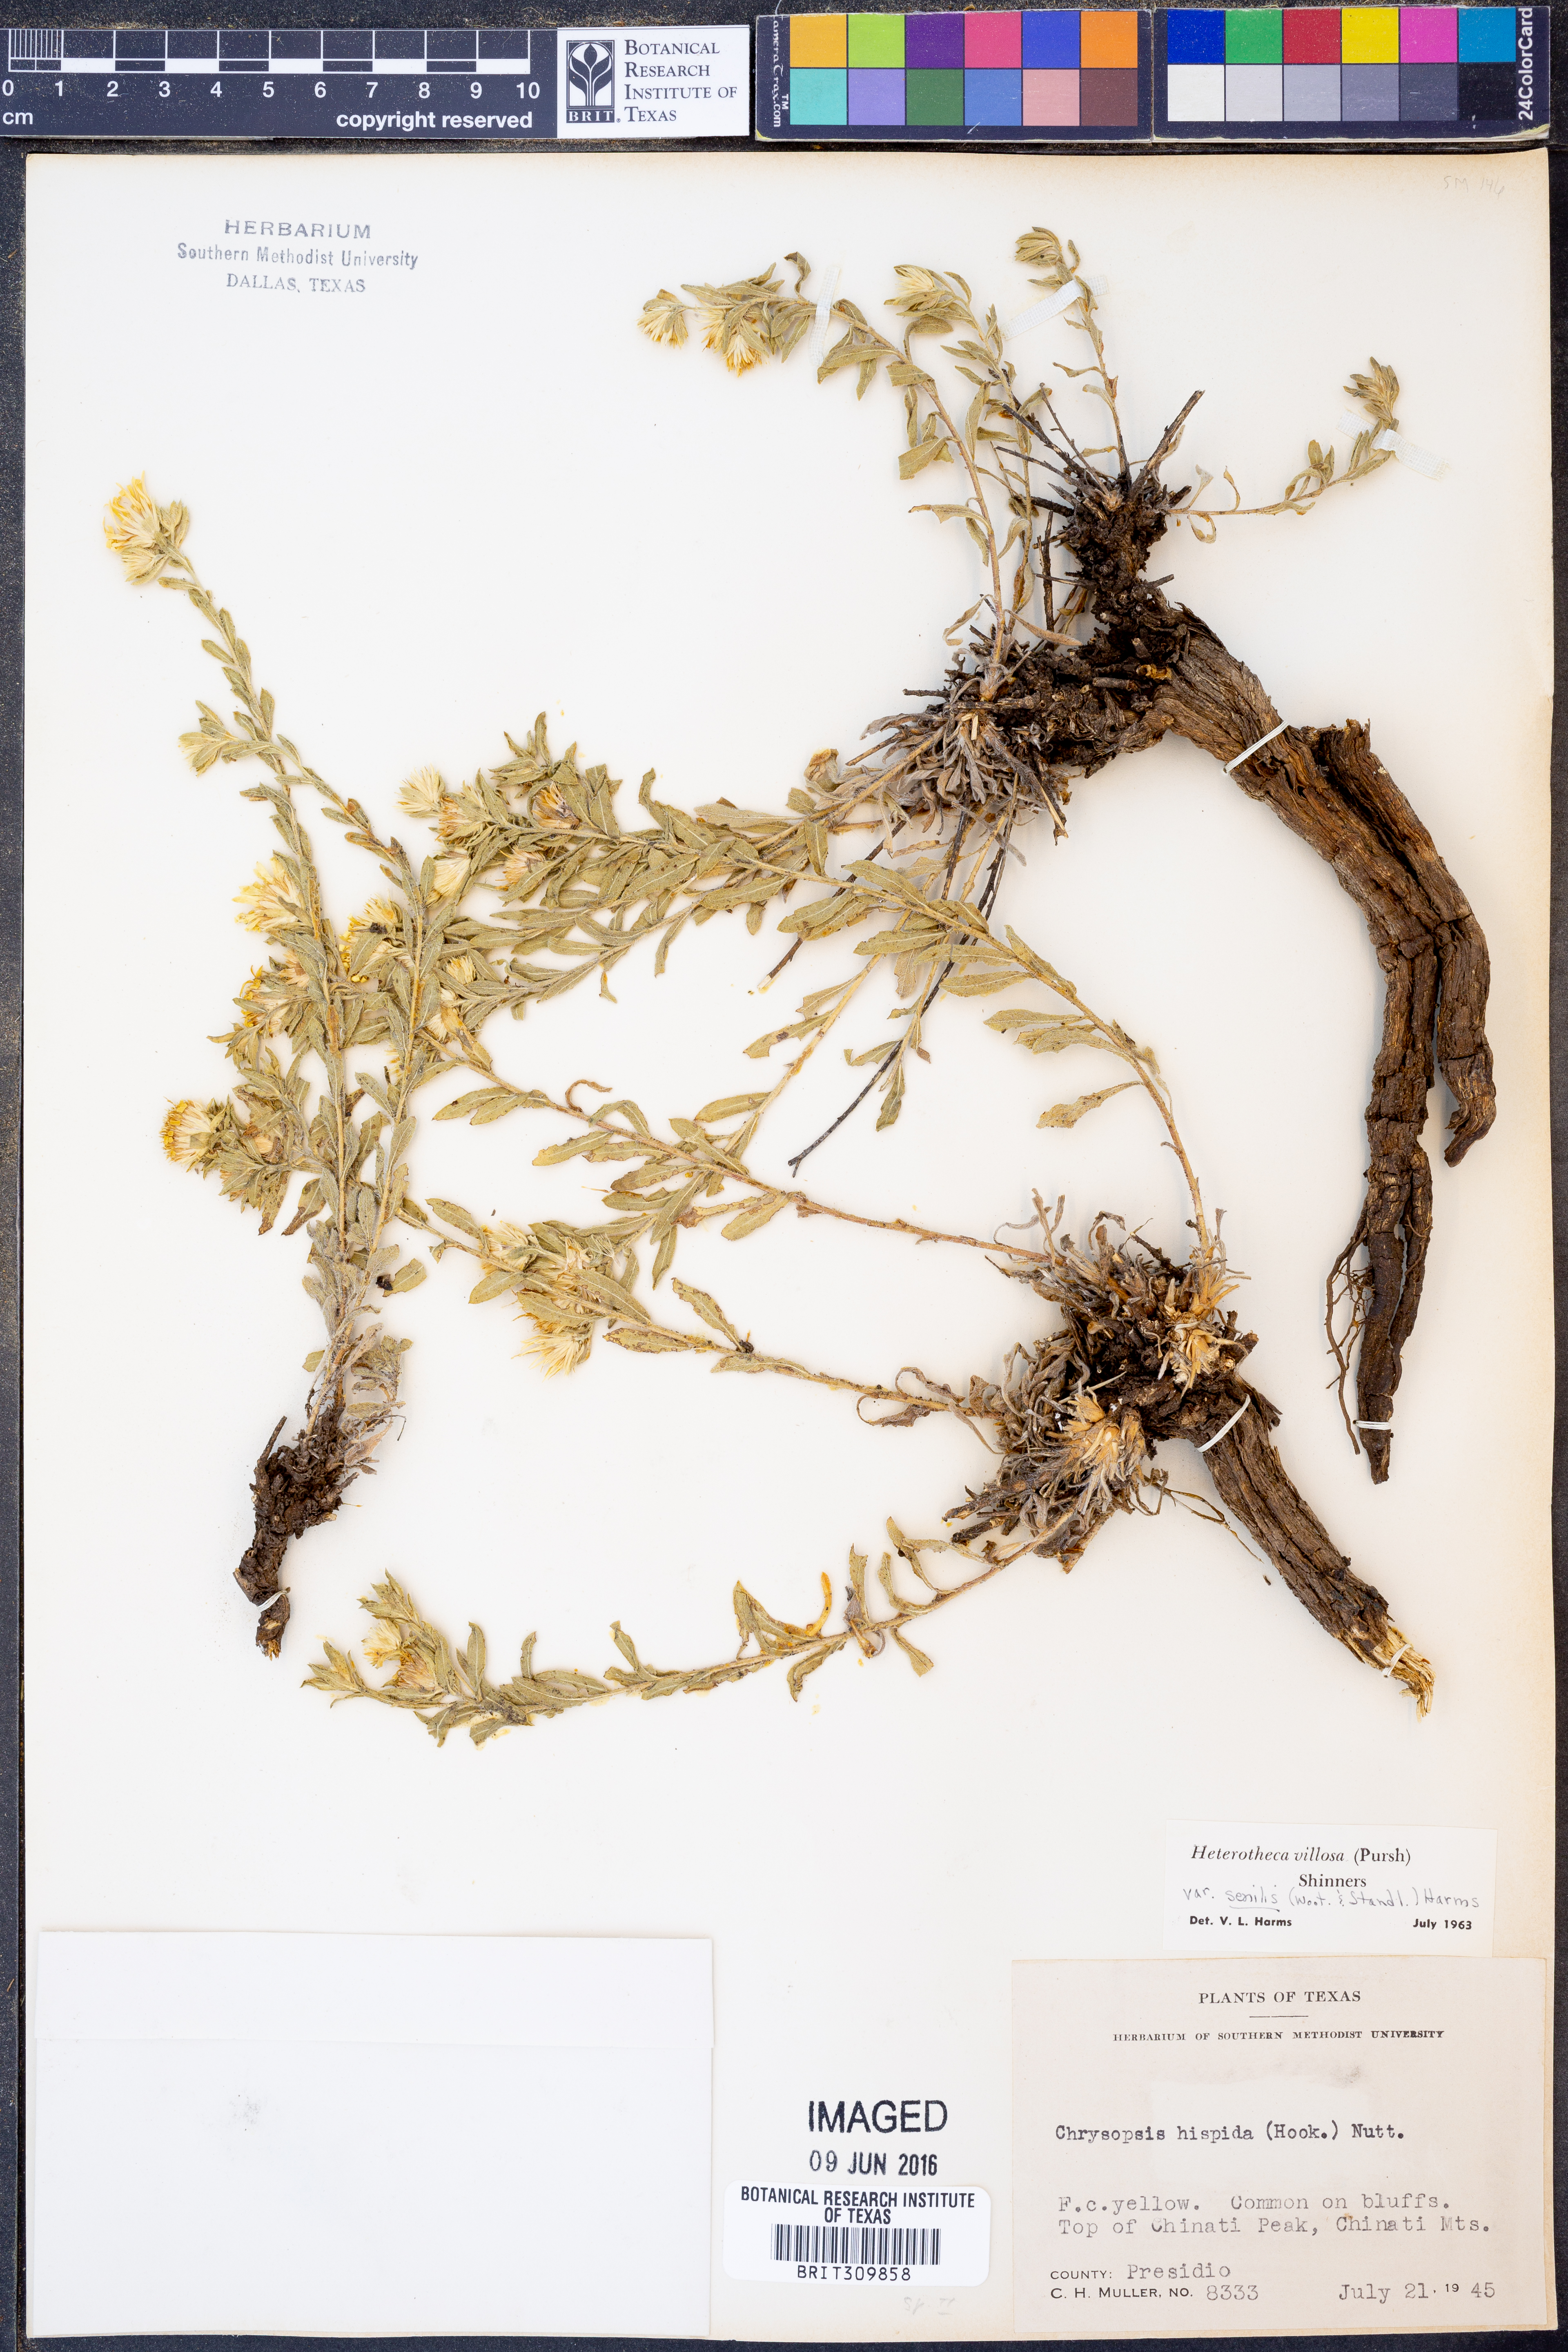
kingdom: Plantae
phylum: Tracheophyta
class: Magnoliopsida
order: Asterales
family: Asteraceae
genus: Heterotheca
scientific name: Heterotheca villosa
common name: Hairy false goldenaster
